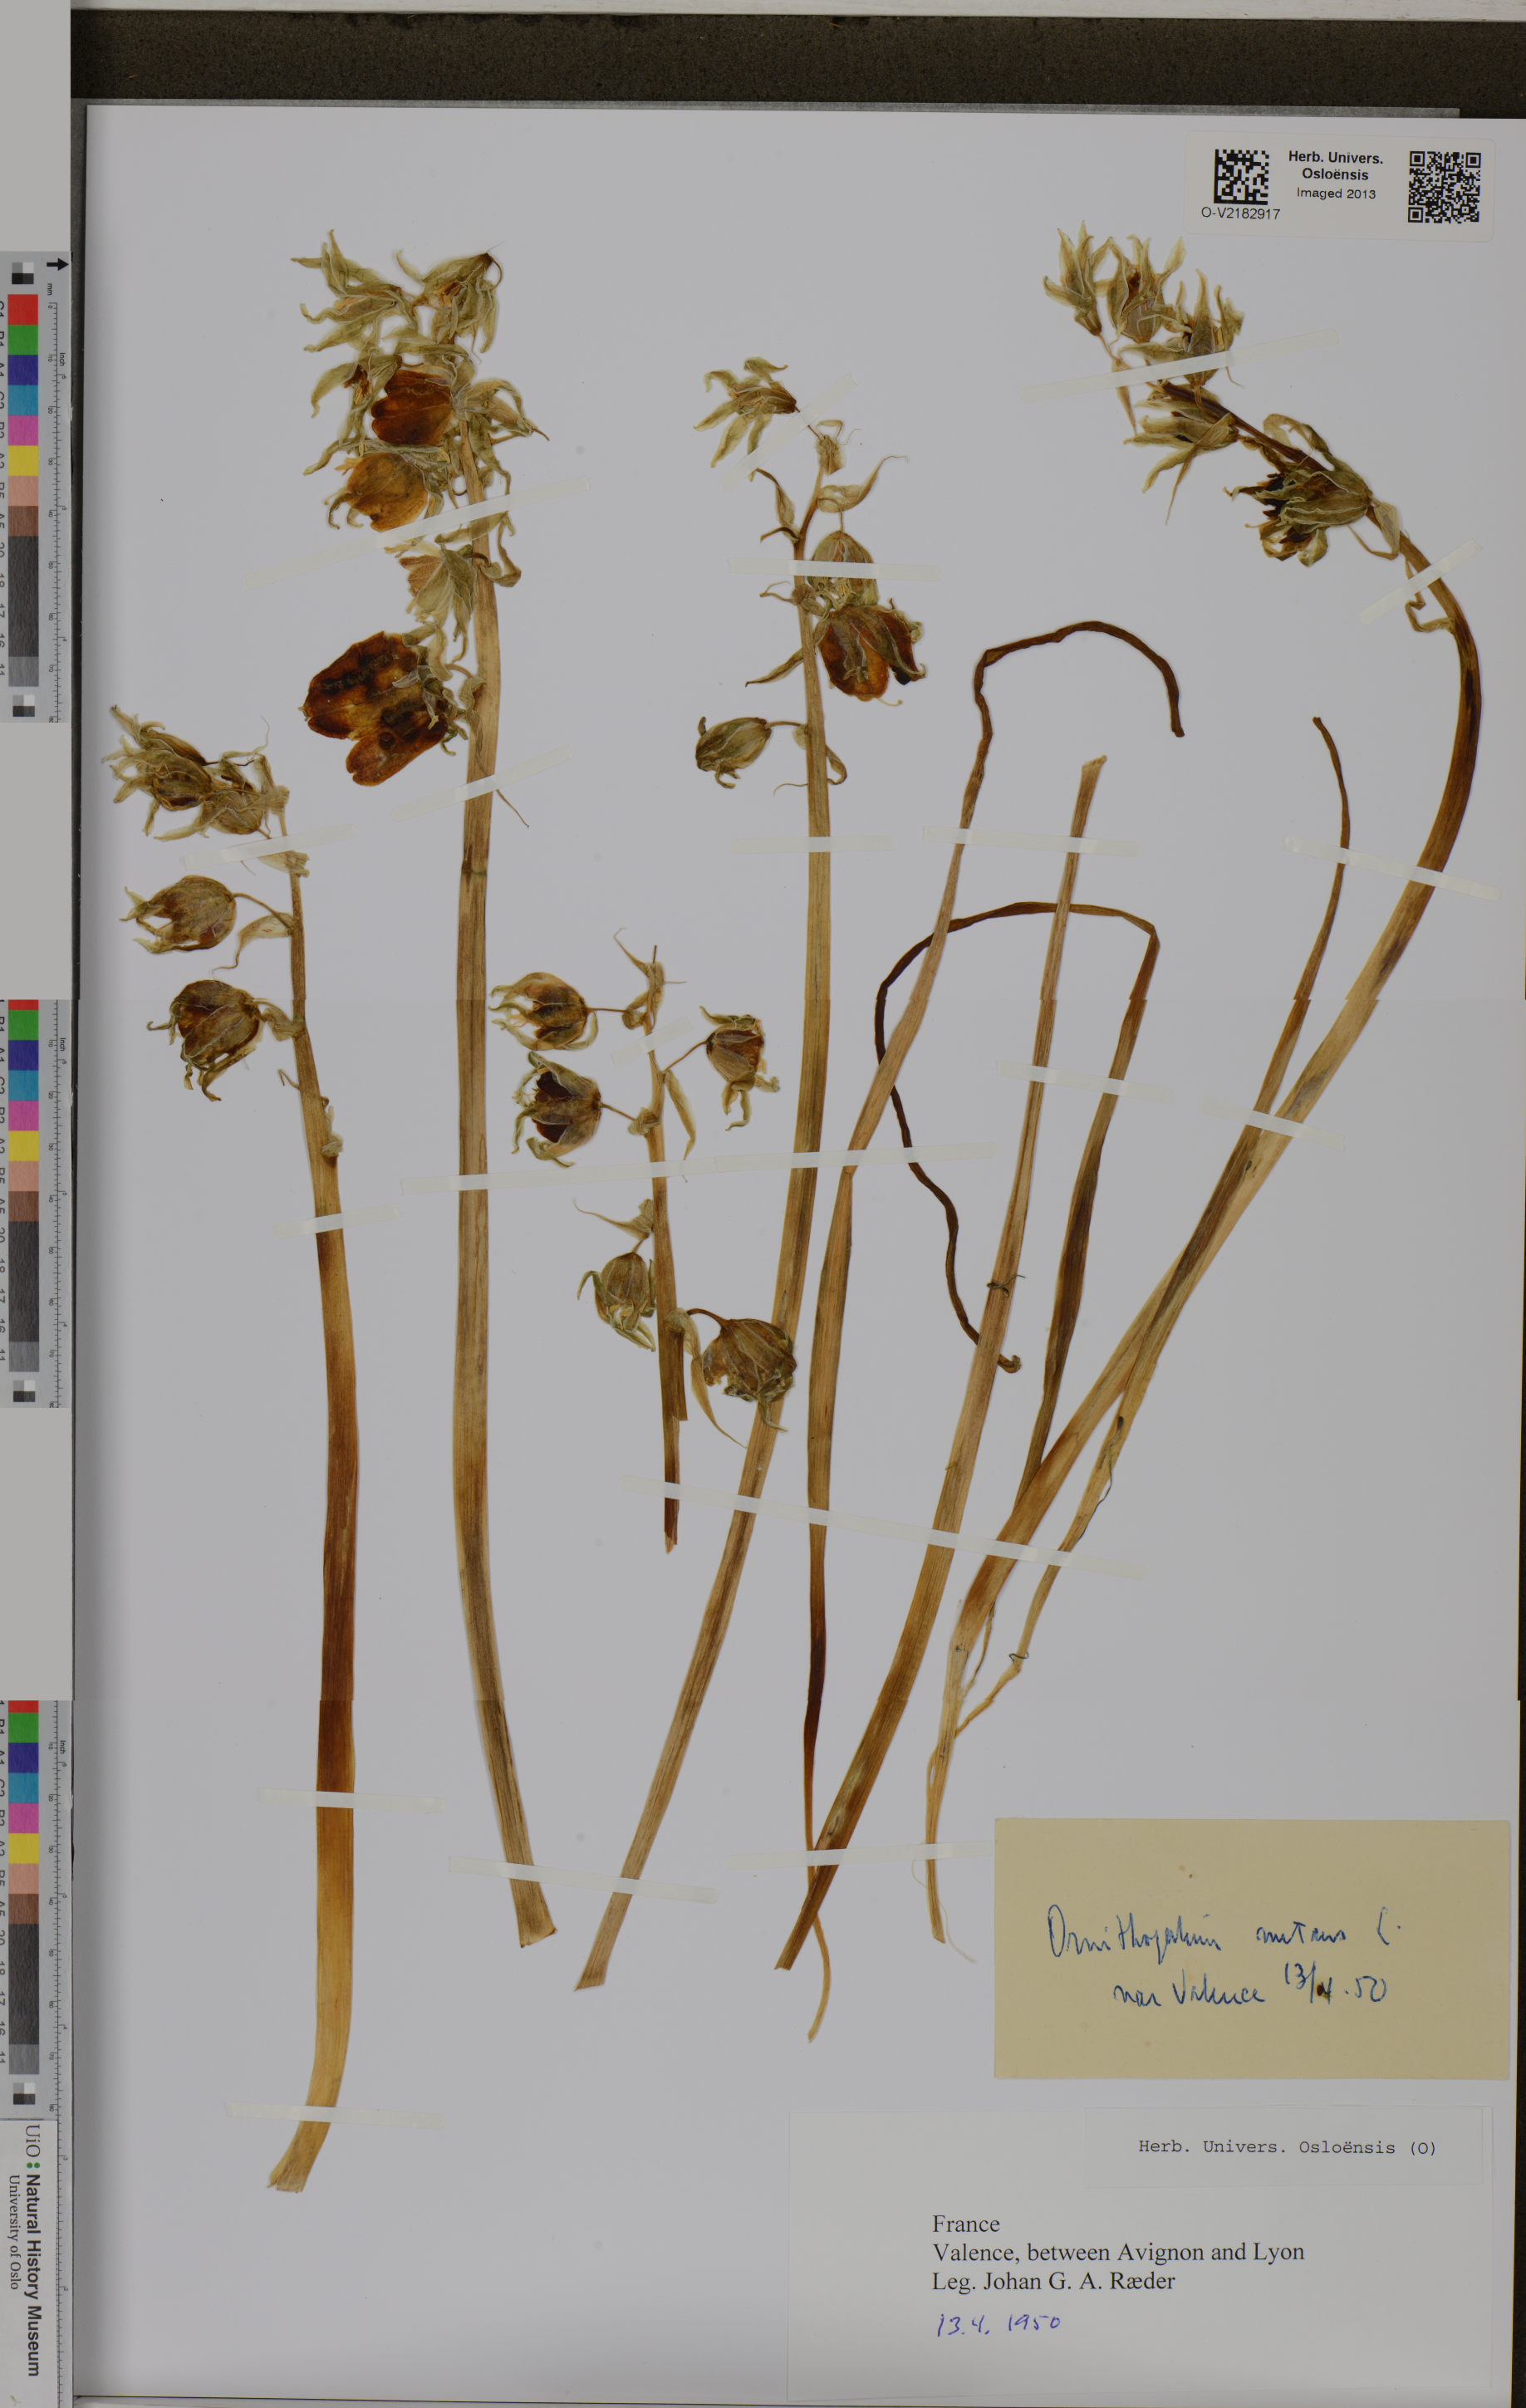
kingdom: Plantae
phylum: Tracheophyta
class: Liliopsida
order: Asparagales
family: Asparagaceae
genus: Ornithogalum
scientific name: Ornithogalum nutans
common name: Drooping star-of-bethlehem
